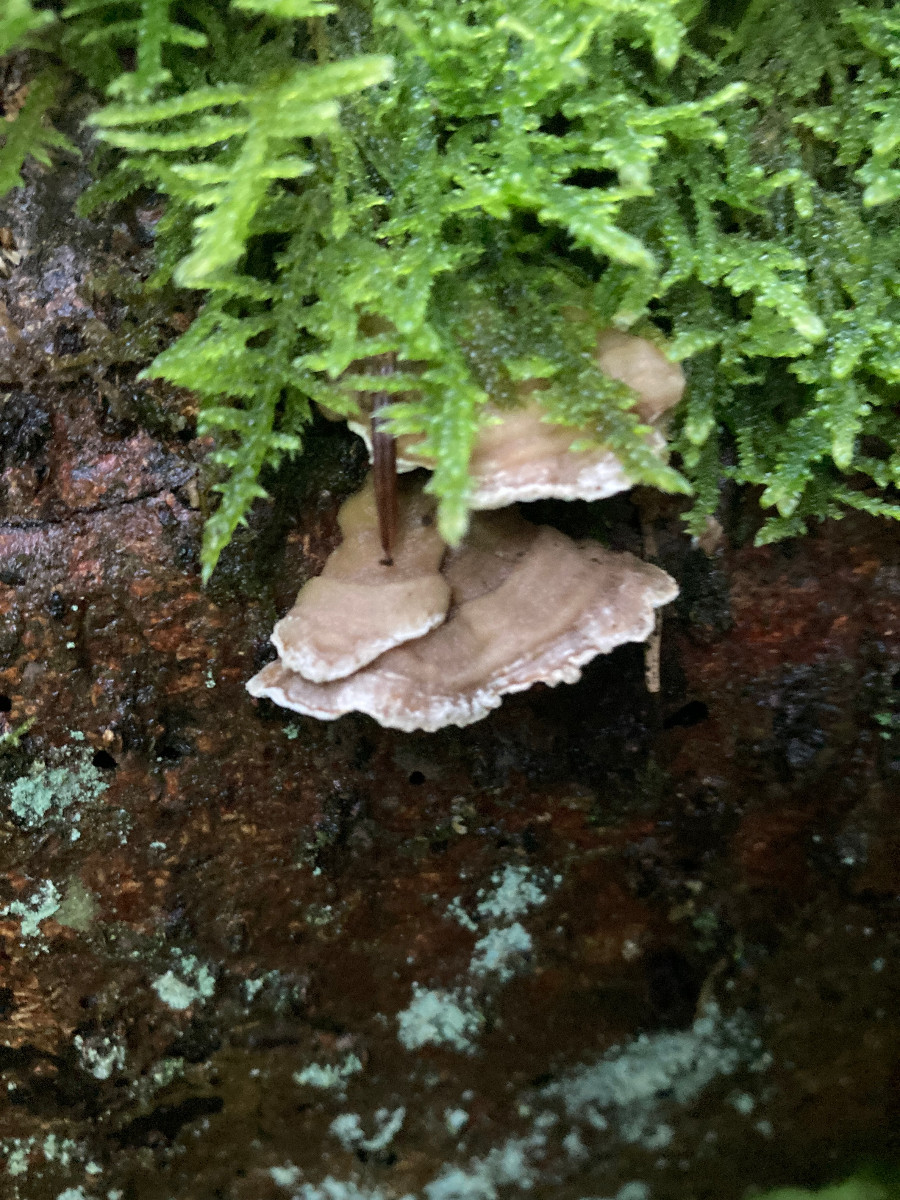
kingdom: Fungi
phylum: Basidiomycota
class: Agaricomycetes
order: Polyporales
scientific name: Polyporales
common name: poresvampordenen
